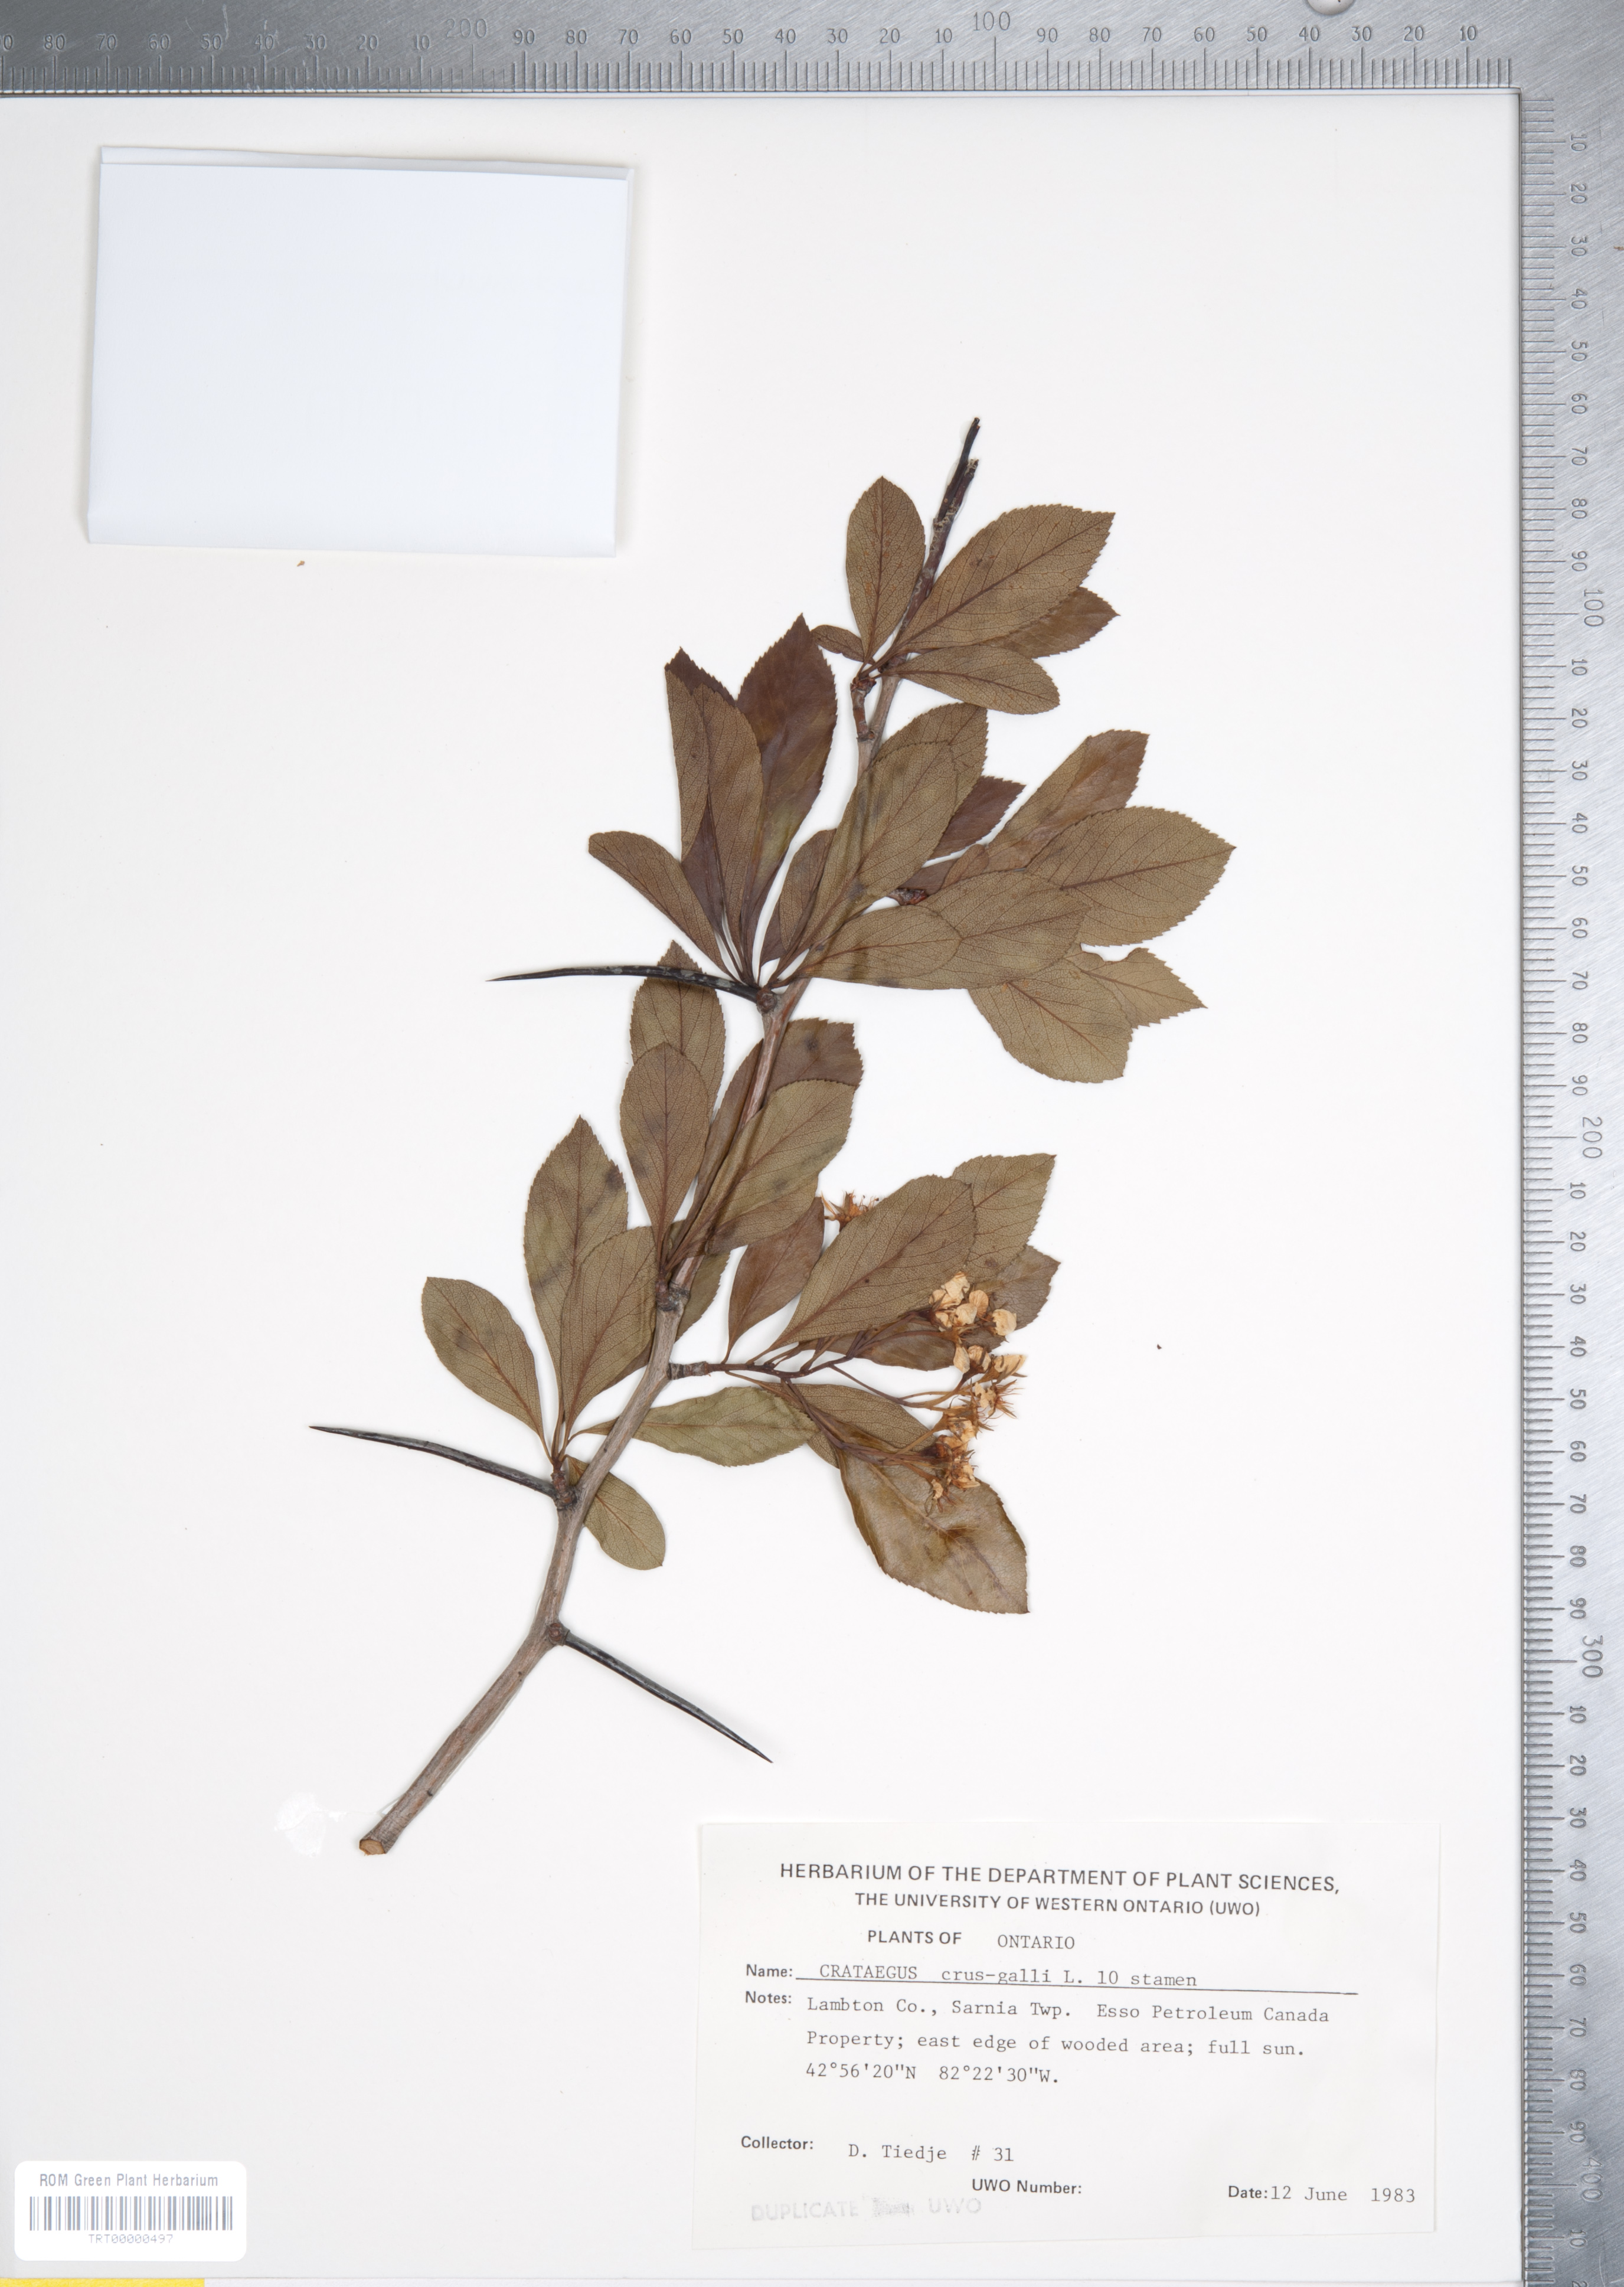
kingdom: Plantae
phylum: Tracheophyta
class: Magnoliopsida
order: Rosales
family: Rosaceae
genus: Crataegus
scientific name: Crataegus crus-galli
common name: Cockspurthorn
